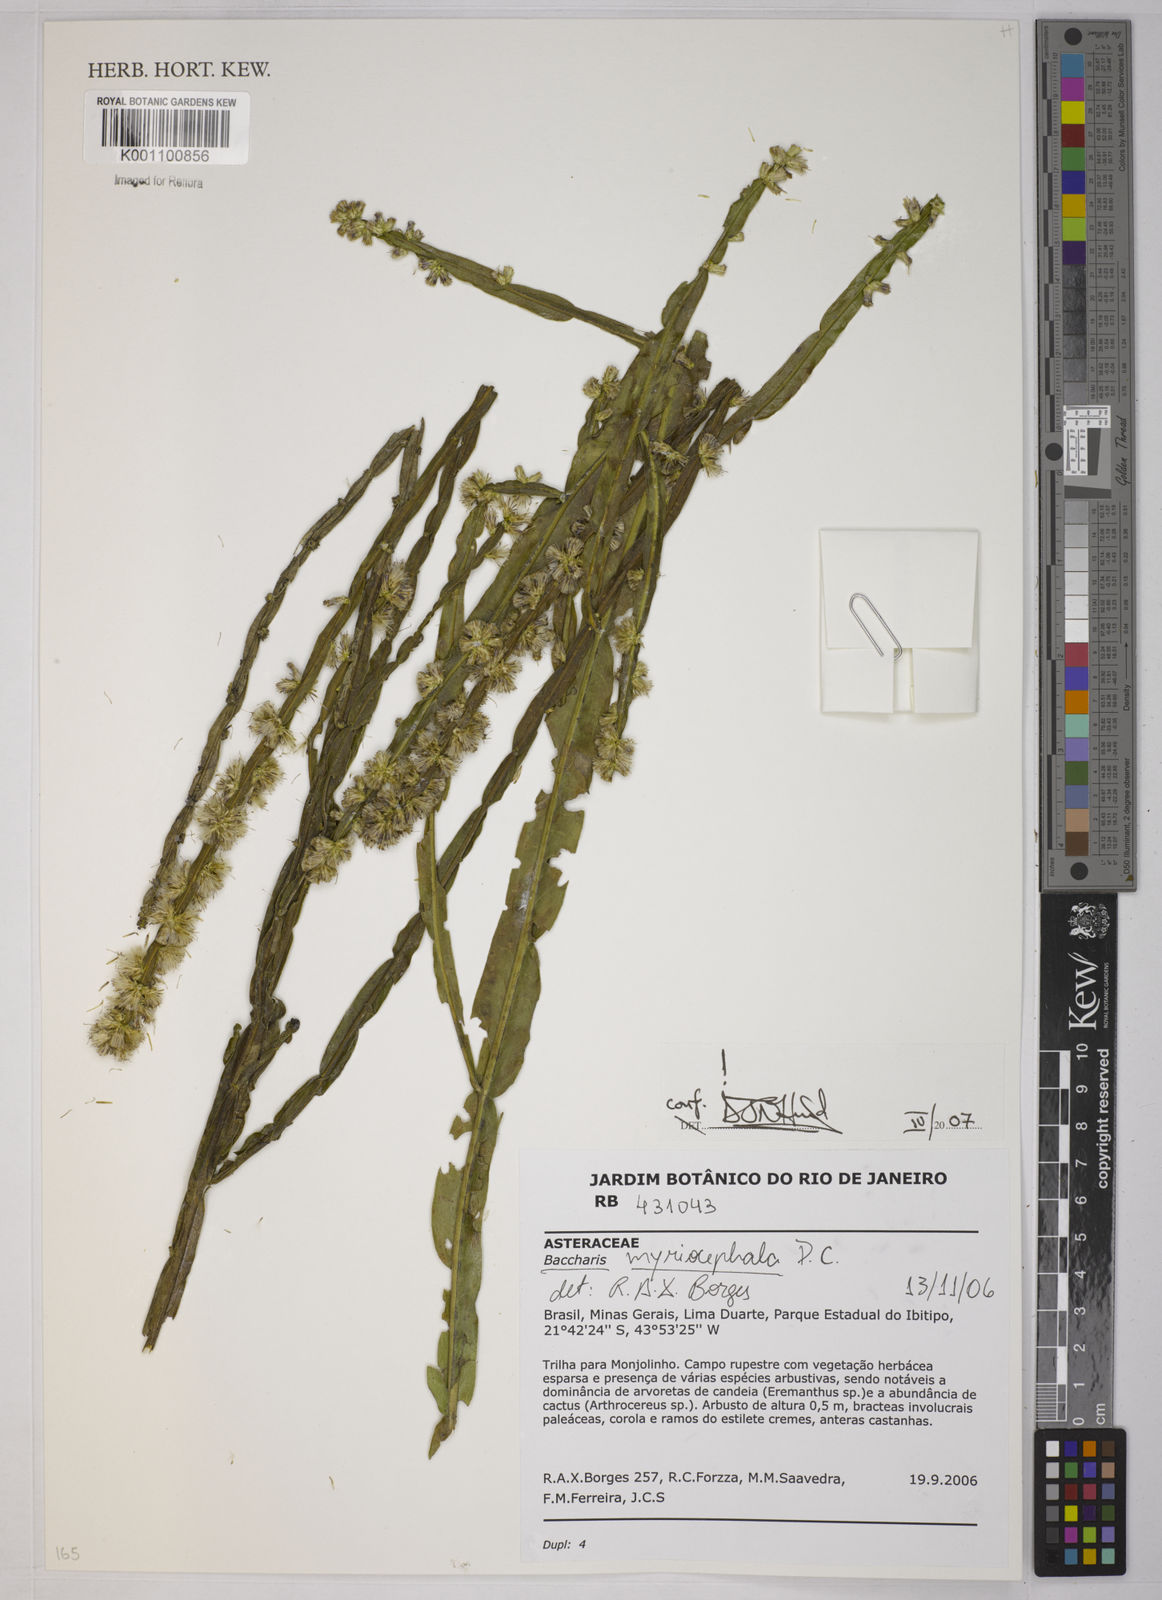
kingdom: Plantae
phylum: Tracheophyta
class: Magnoliopsida
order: Asterales
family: Asteraceae
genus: Baccharis
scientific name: Baccharis myriocephala
